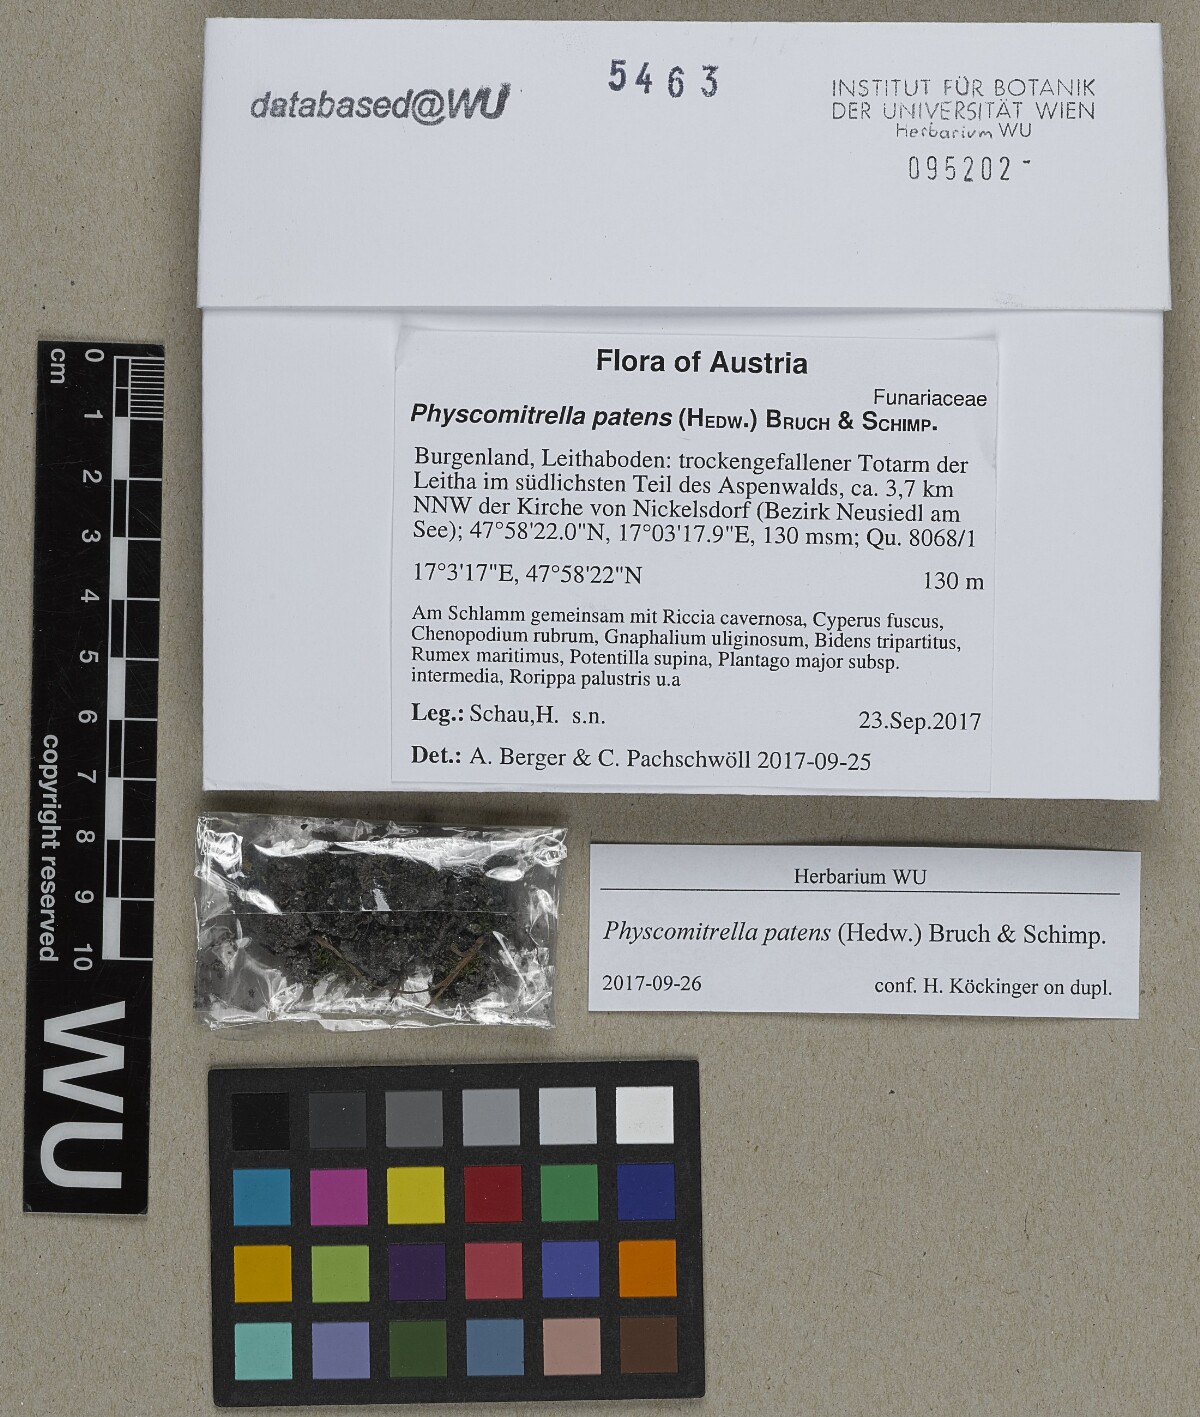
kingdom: Plantae
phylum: Bryophyta
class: Bryopsida
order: Funariales
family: Funariaceae
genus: Physcomitrium
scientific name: Physcomitrium patens
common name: Spreading earth-moss
